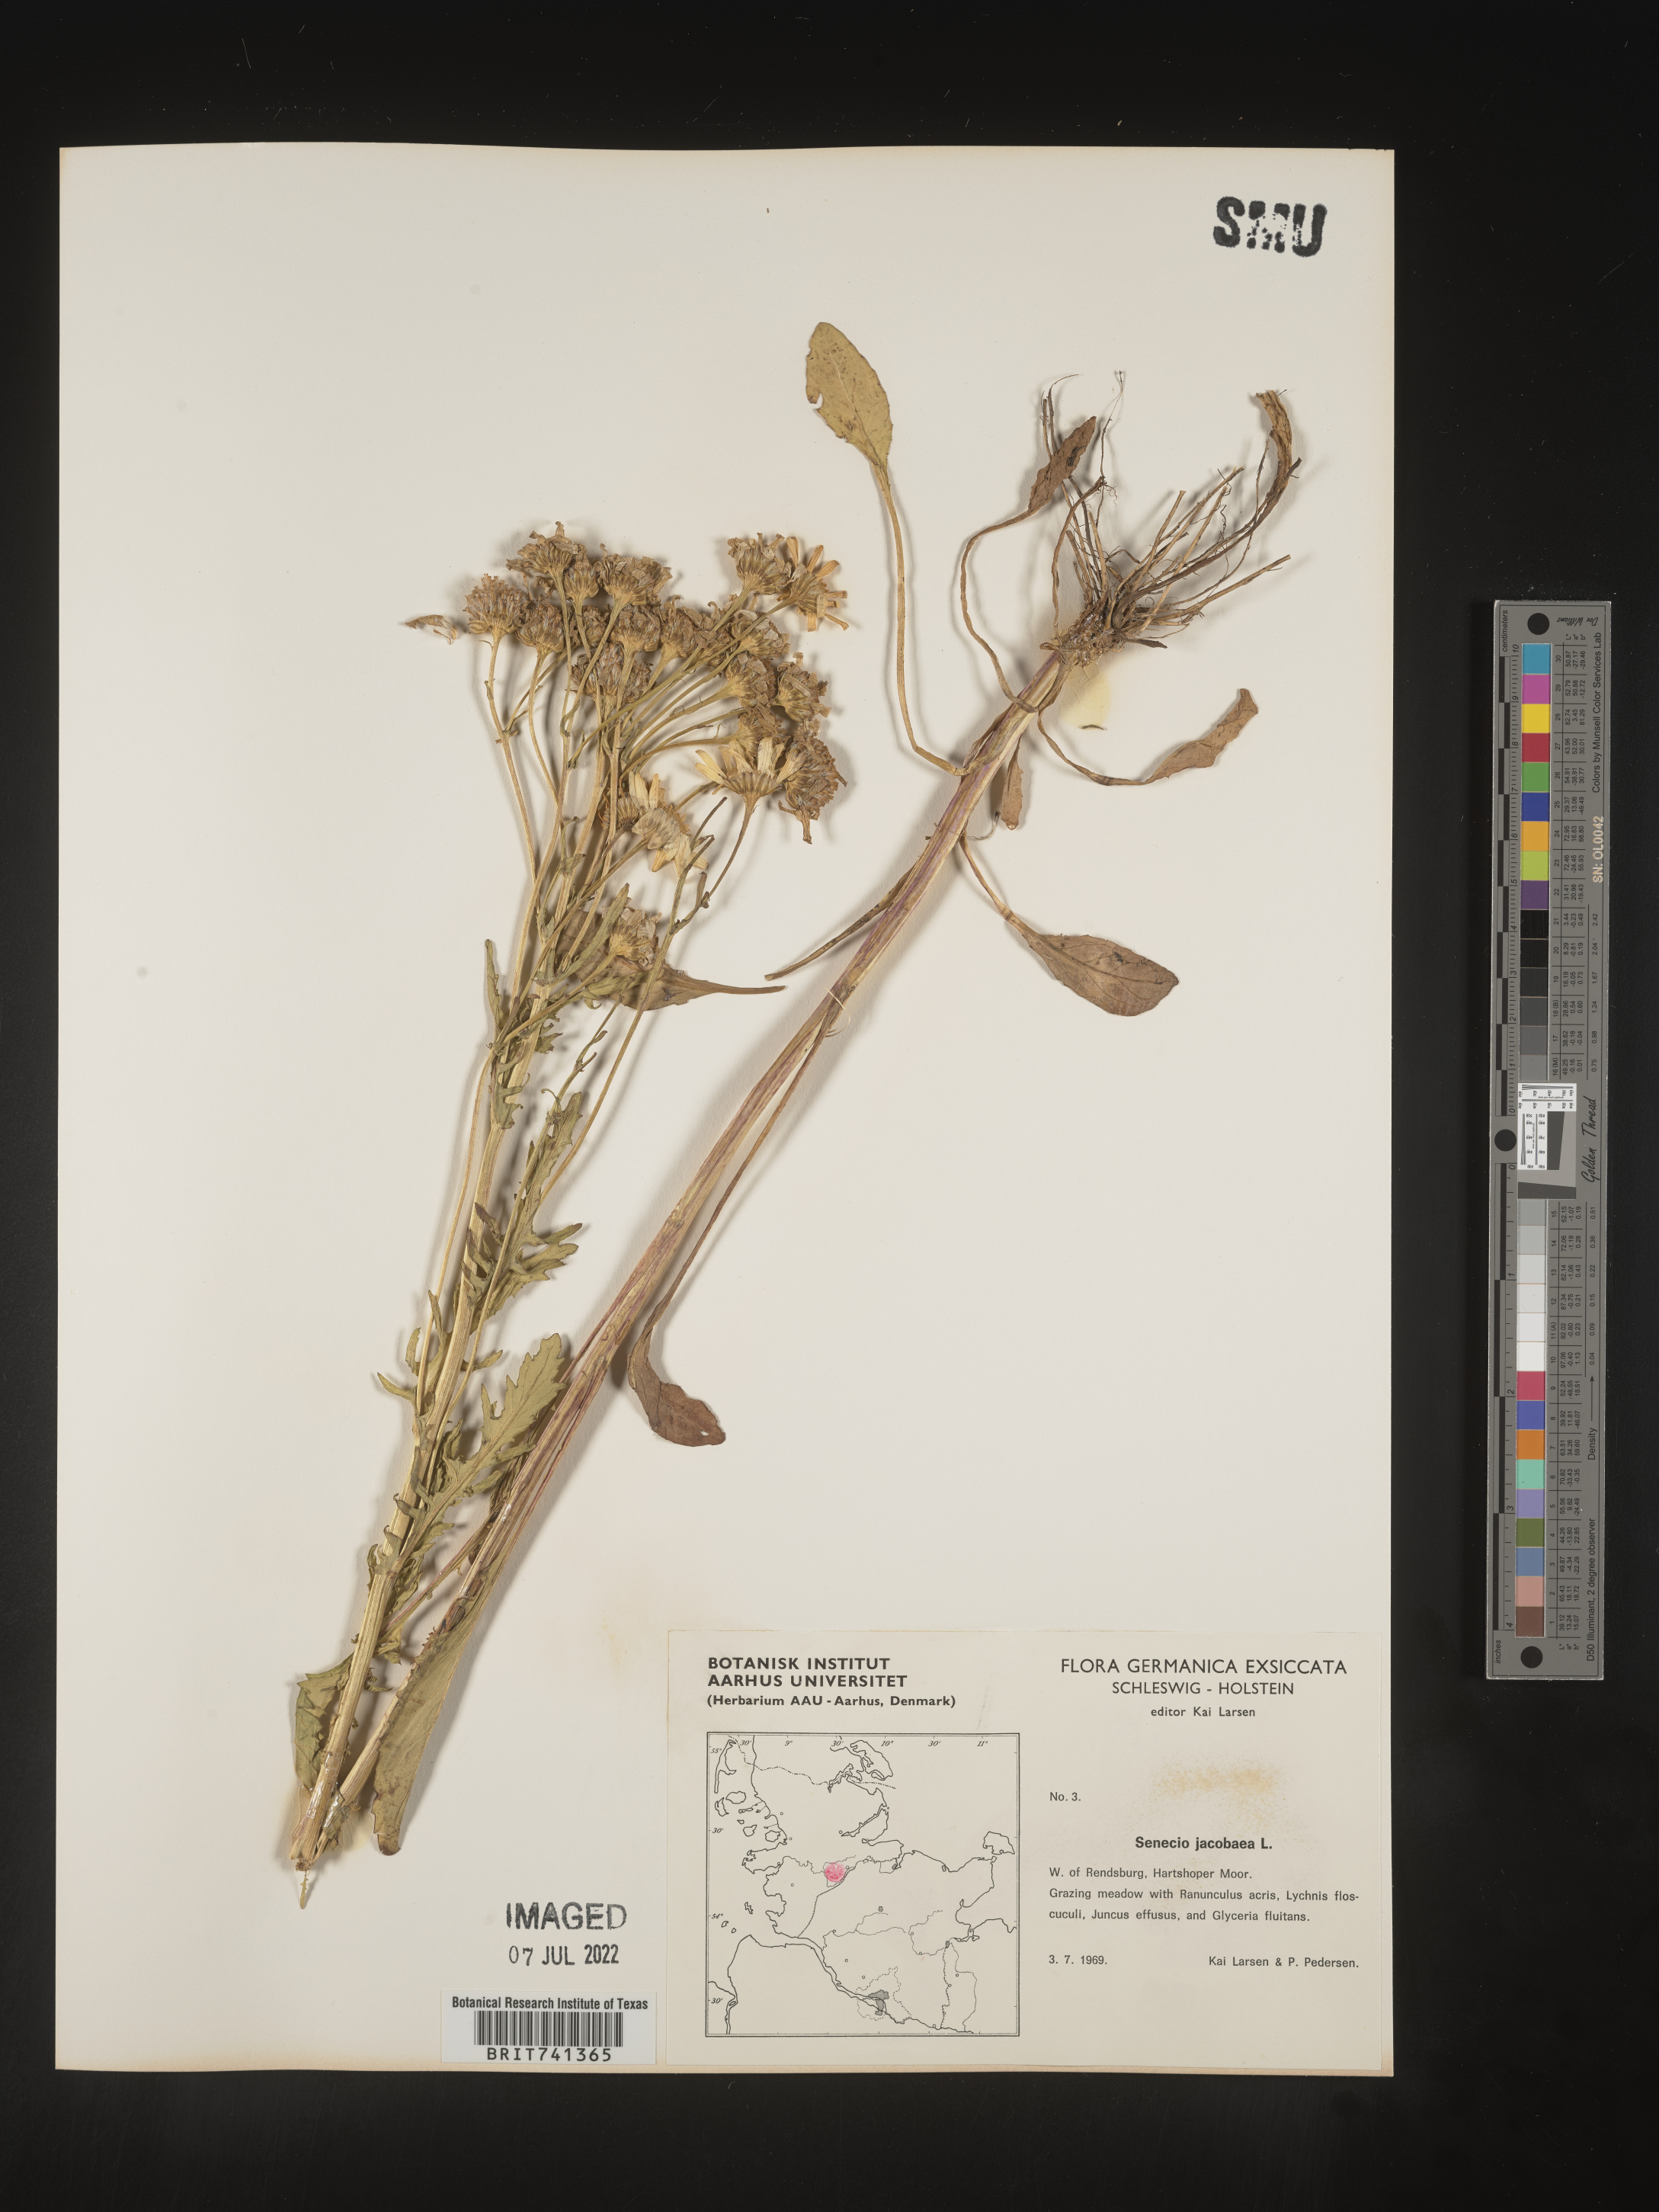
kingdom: Plantae
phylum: Tracheophyta
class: Magnoliopsida
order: Asterales
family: Asteraceae
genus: Senecio
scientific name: Senecio
